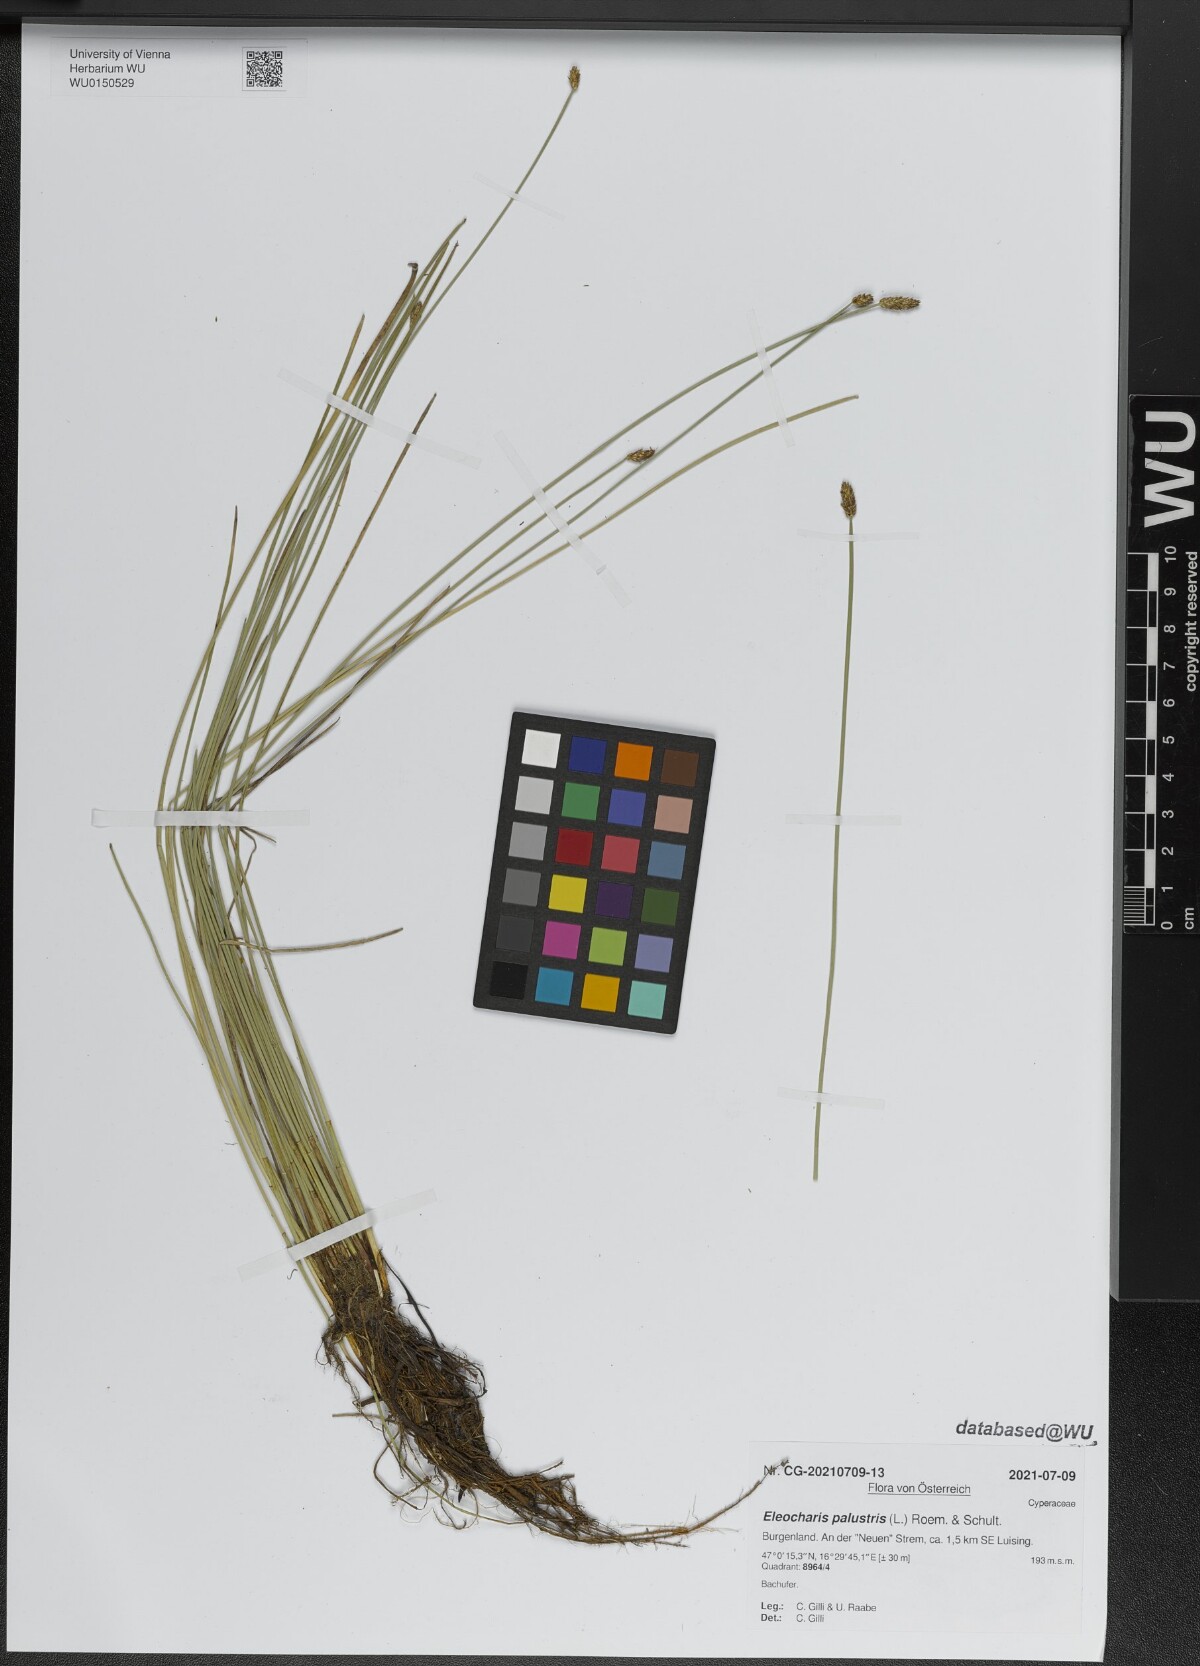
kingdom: Plantae
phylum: Tracheophyta
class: Liliopsida
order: Poales
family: Cyperaceae
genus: Eleocharis
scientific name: Eleocharis palustris
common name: Common spike-rush
